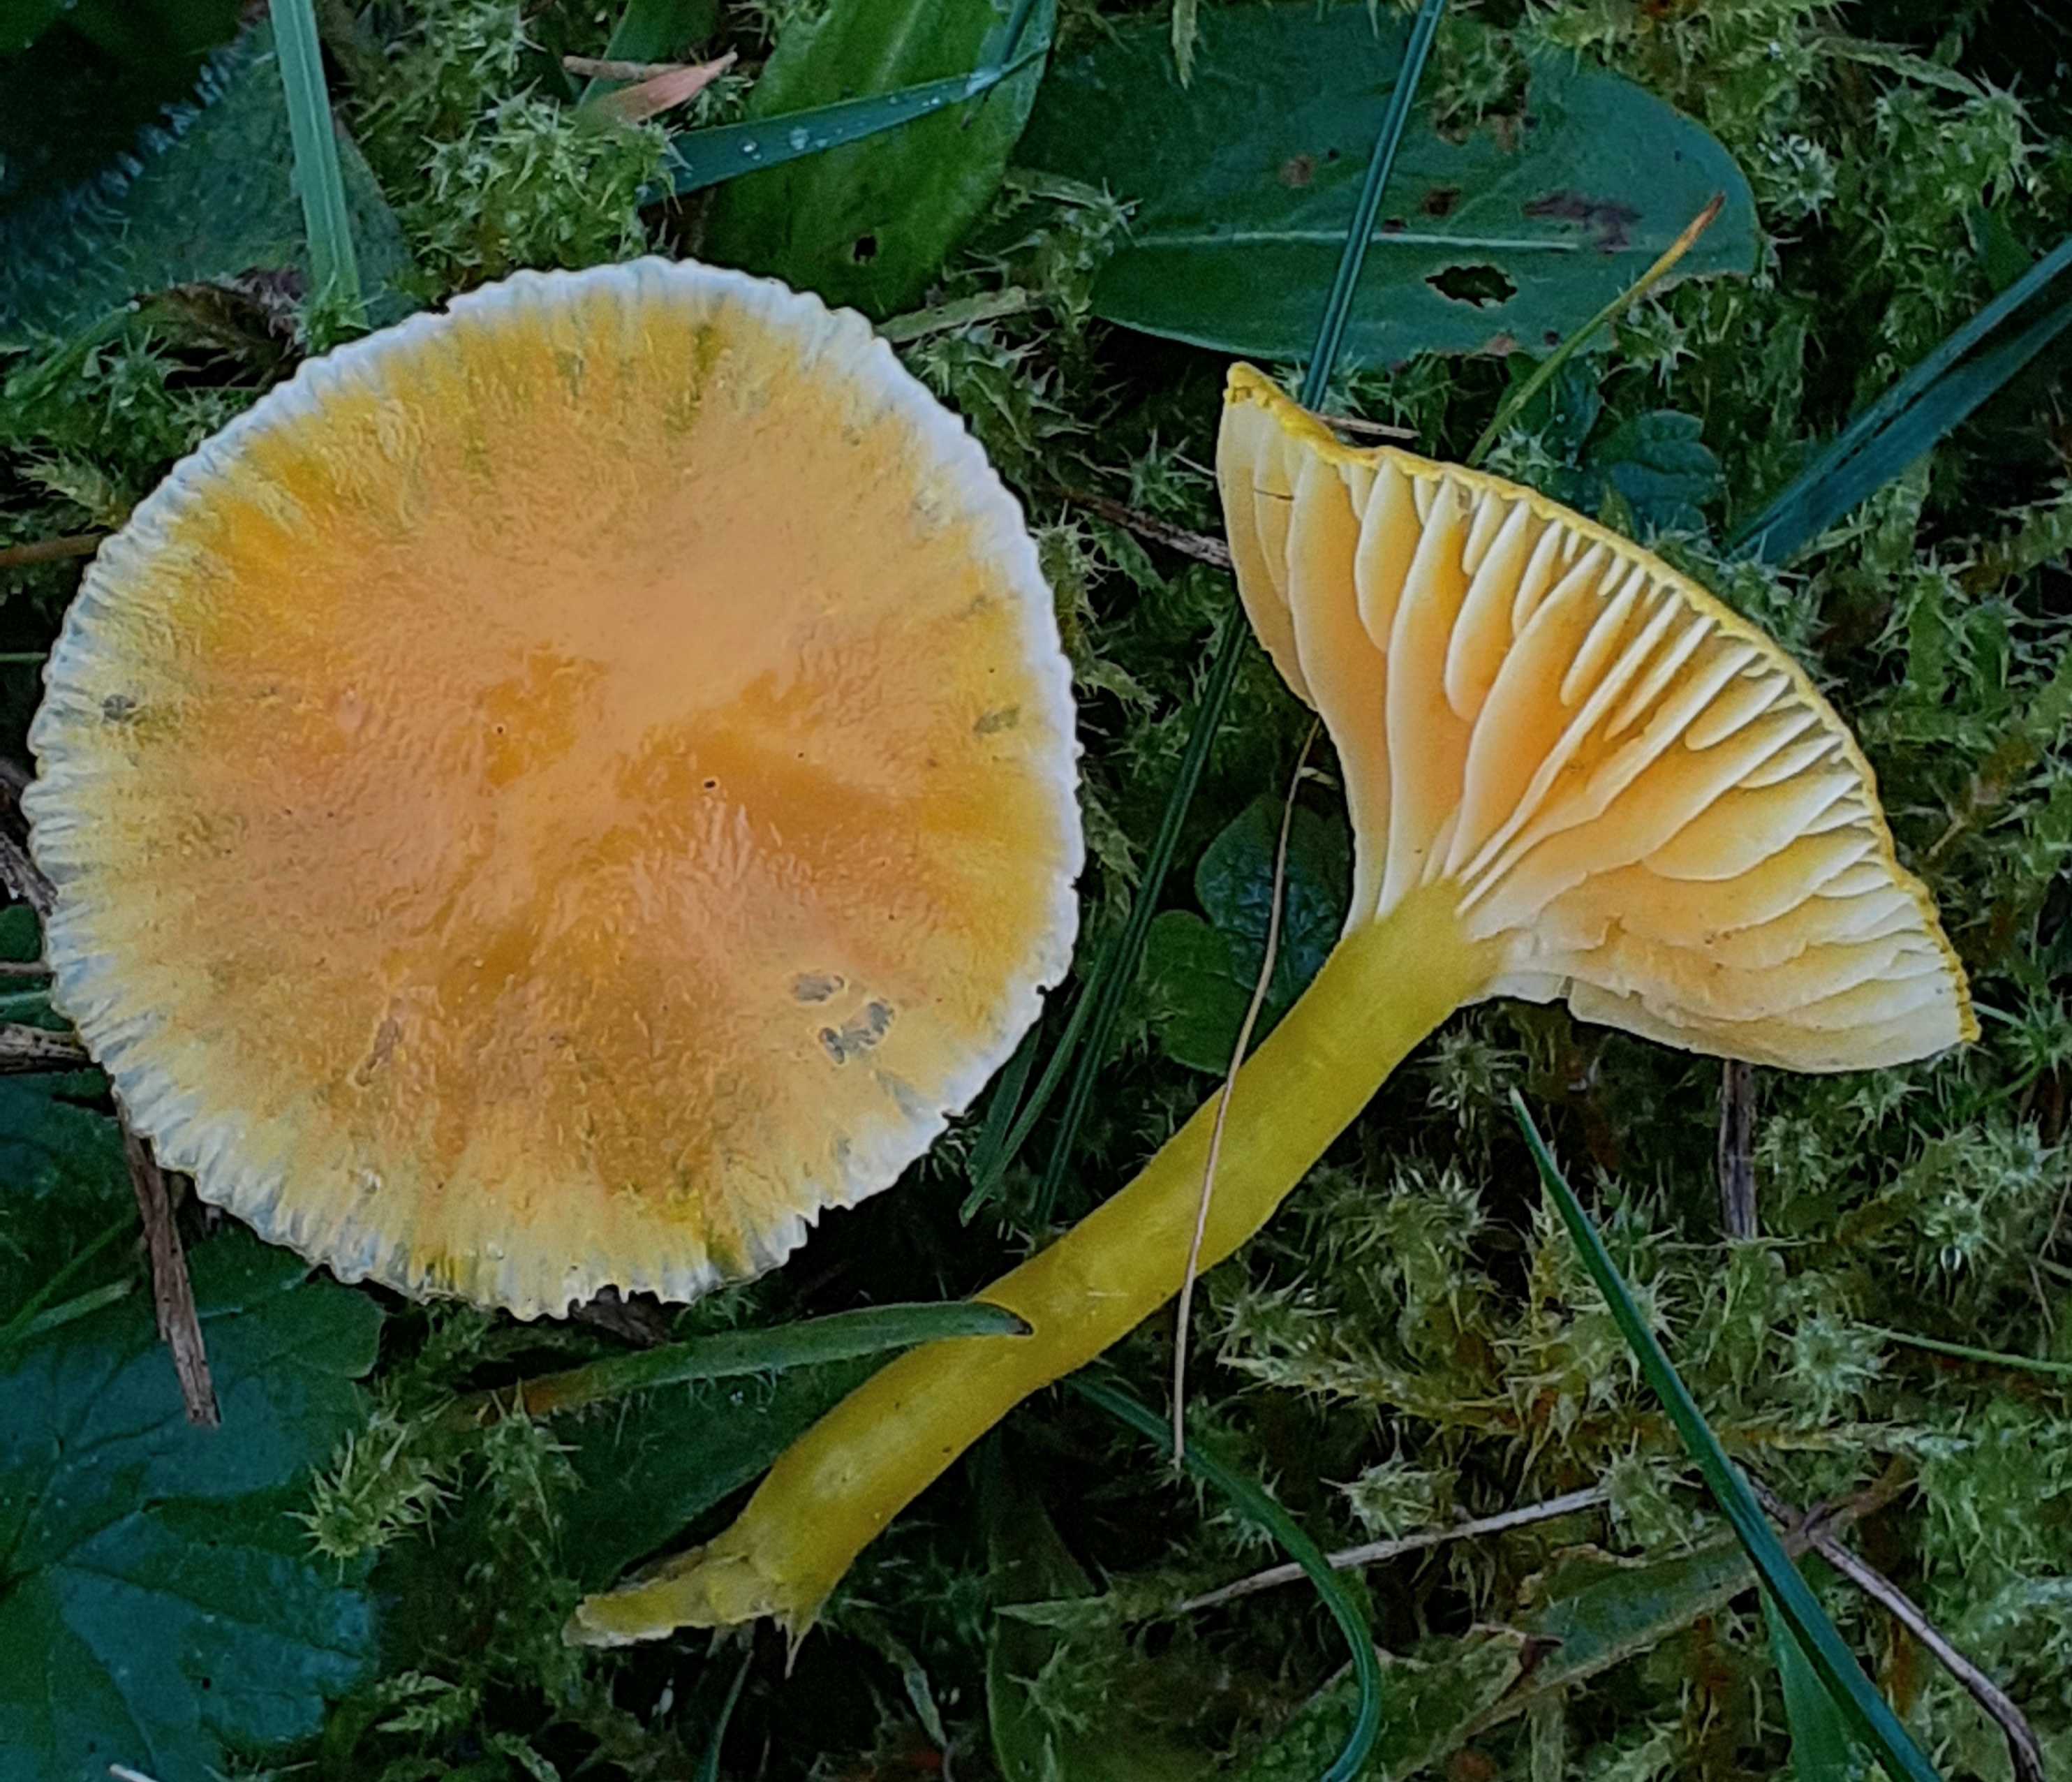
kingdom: Fungi
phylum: Basidiomycota
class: Agaricomycetes
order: Agaricales
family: Hygrophoraceae
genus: Hygrocybe
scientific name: Hygrocybe ceracea
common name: voksgul vokshat
